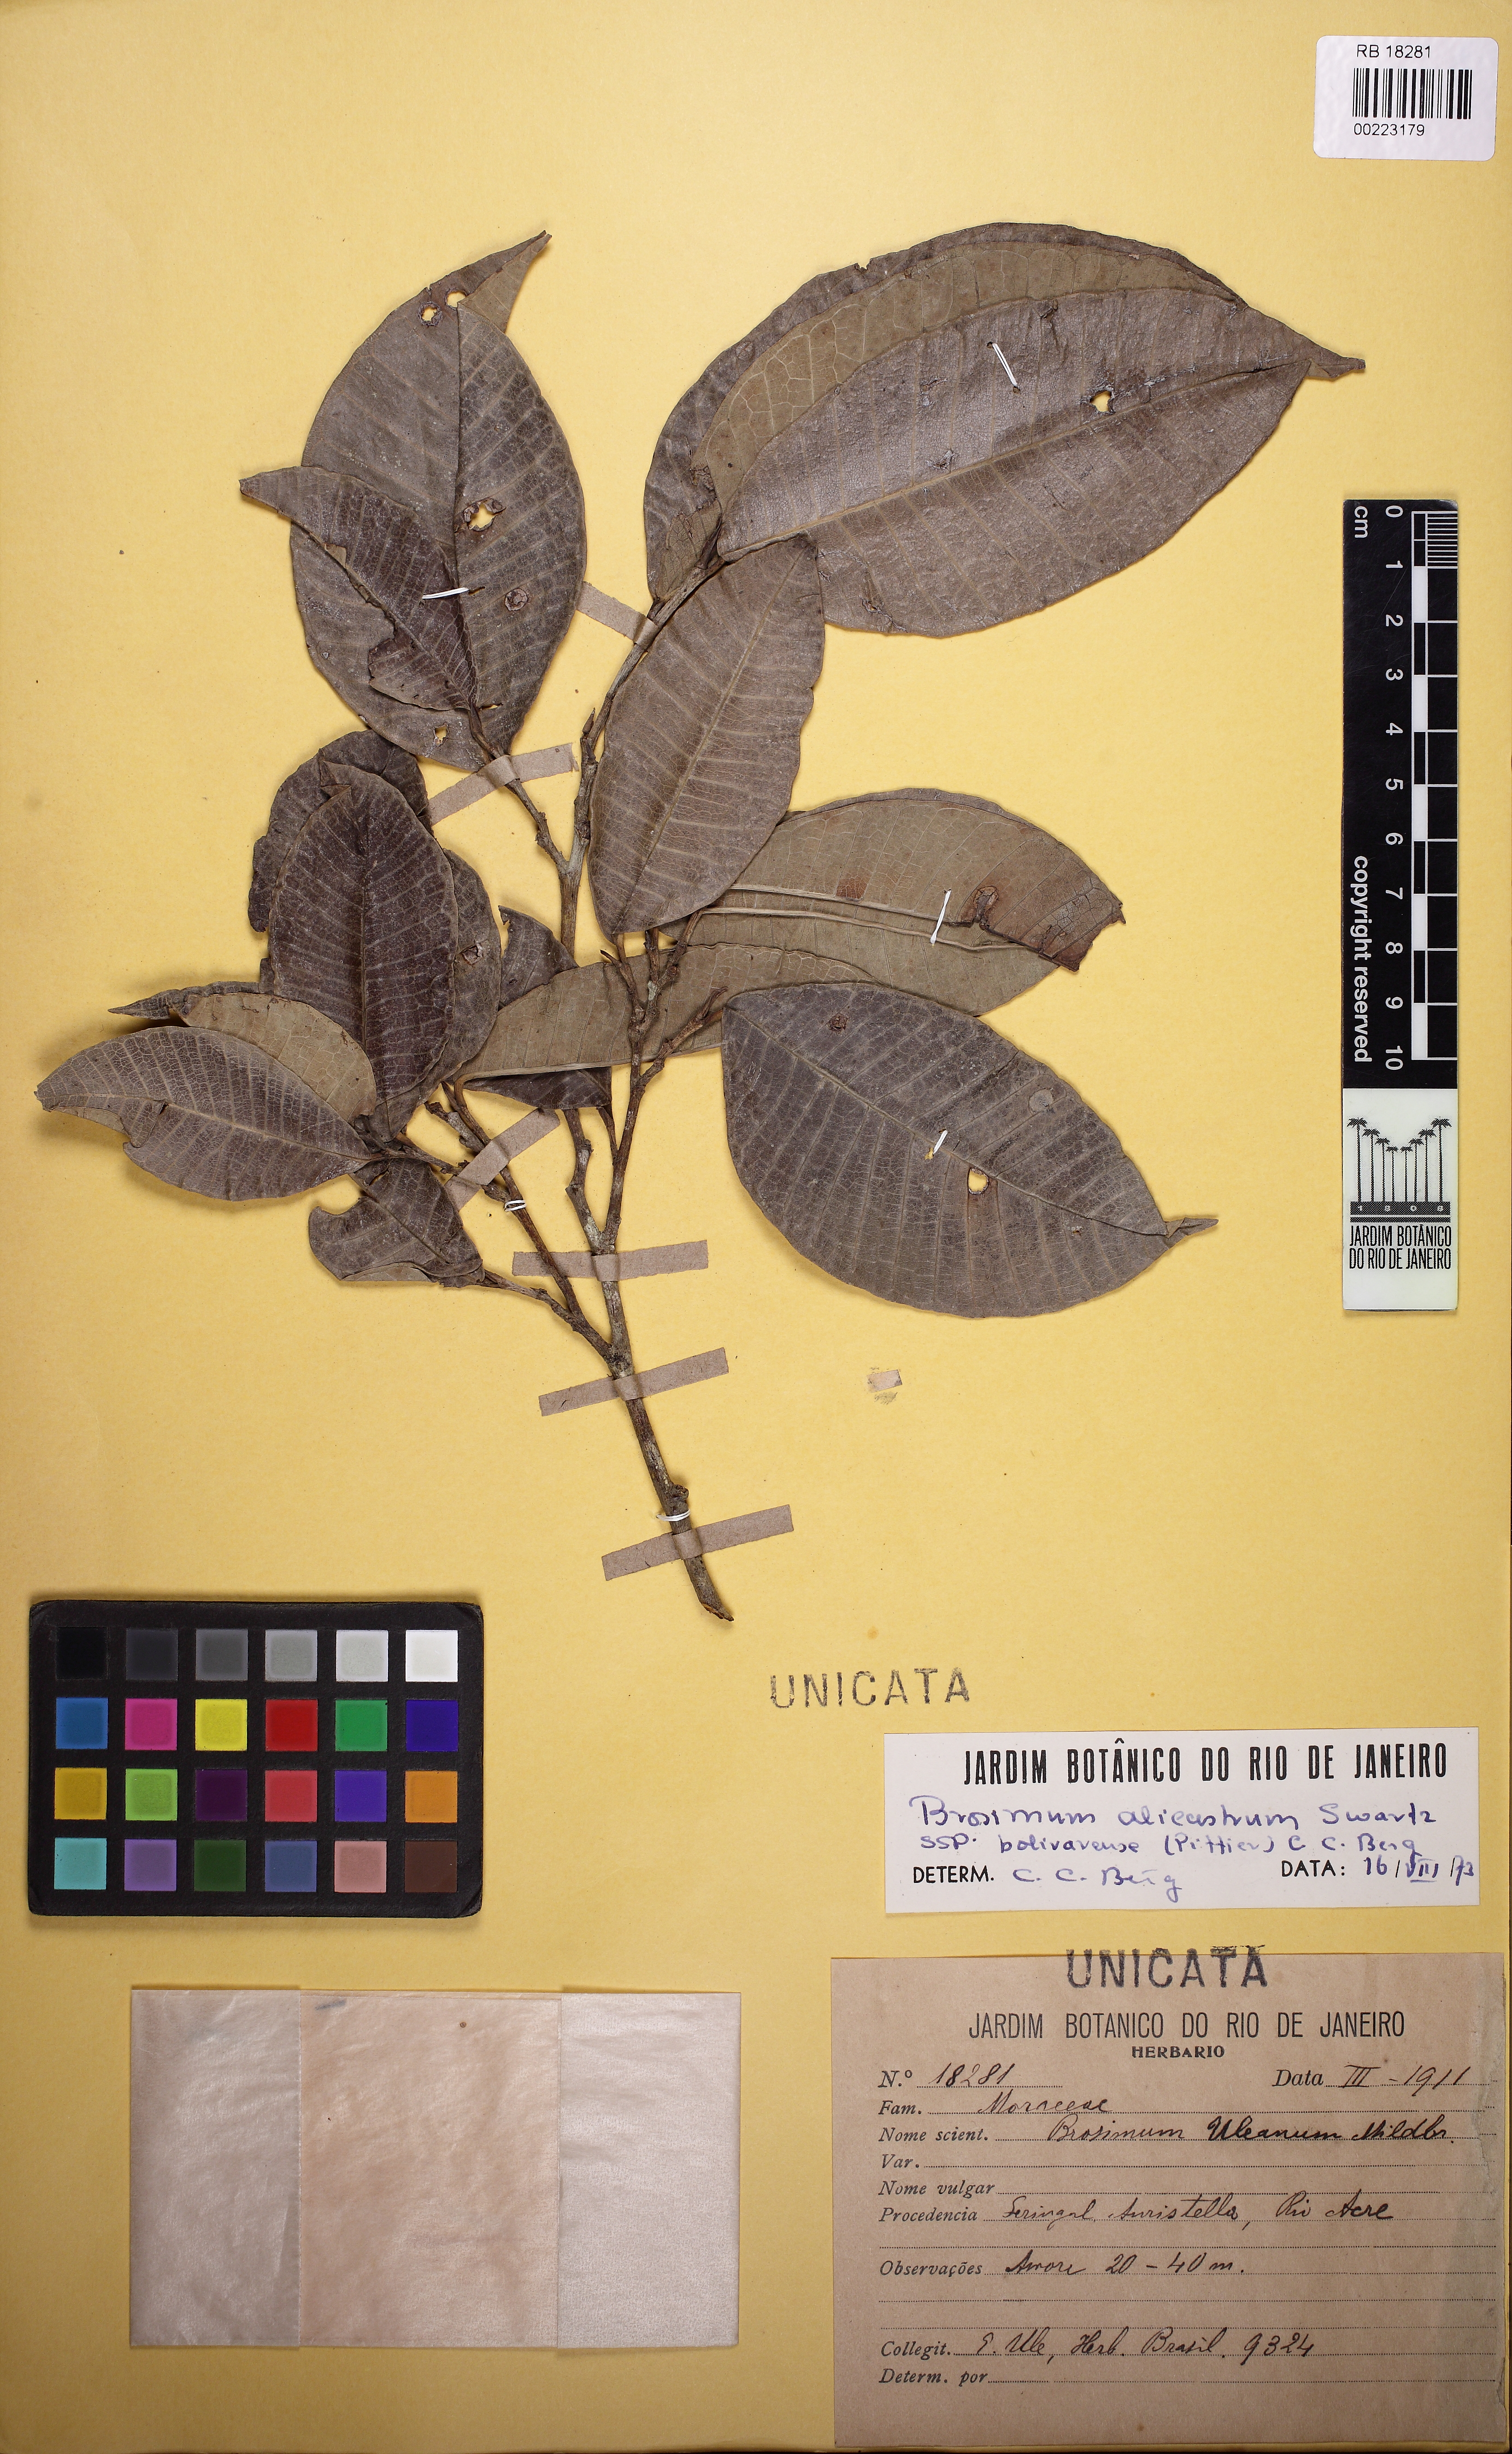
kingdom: Plantae
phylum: Tracheophyta
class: Magnoliopsida
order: Rosales
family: Moraceae
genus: Brosimum
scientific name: Brosimum alicastrum
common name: Breadnut
